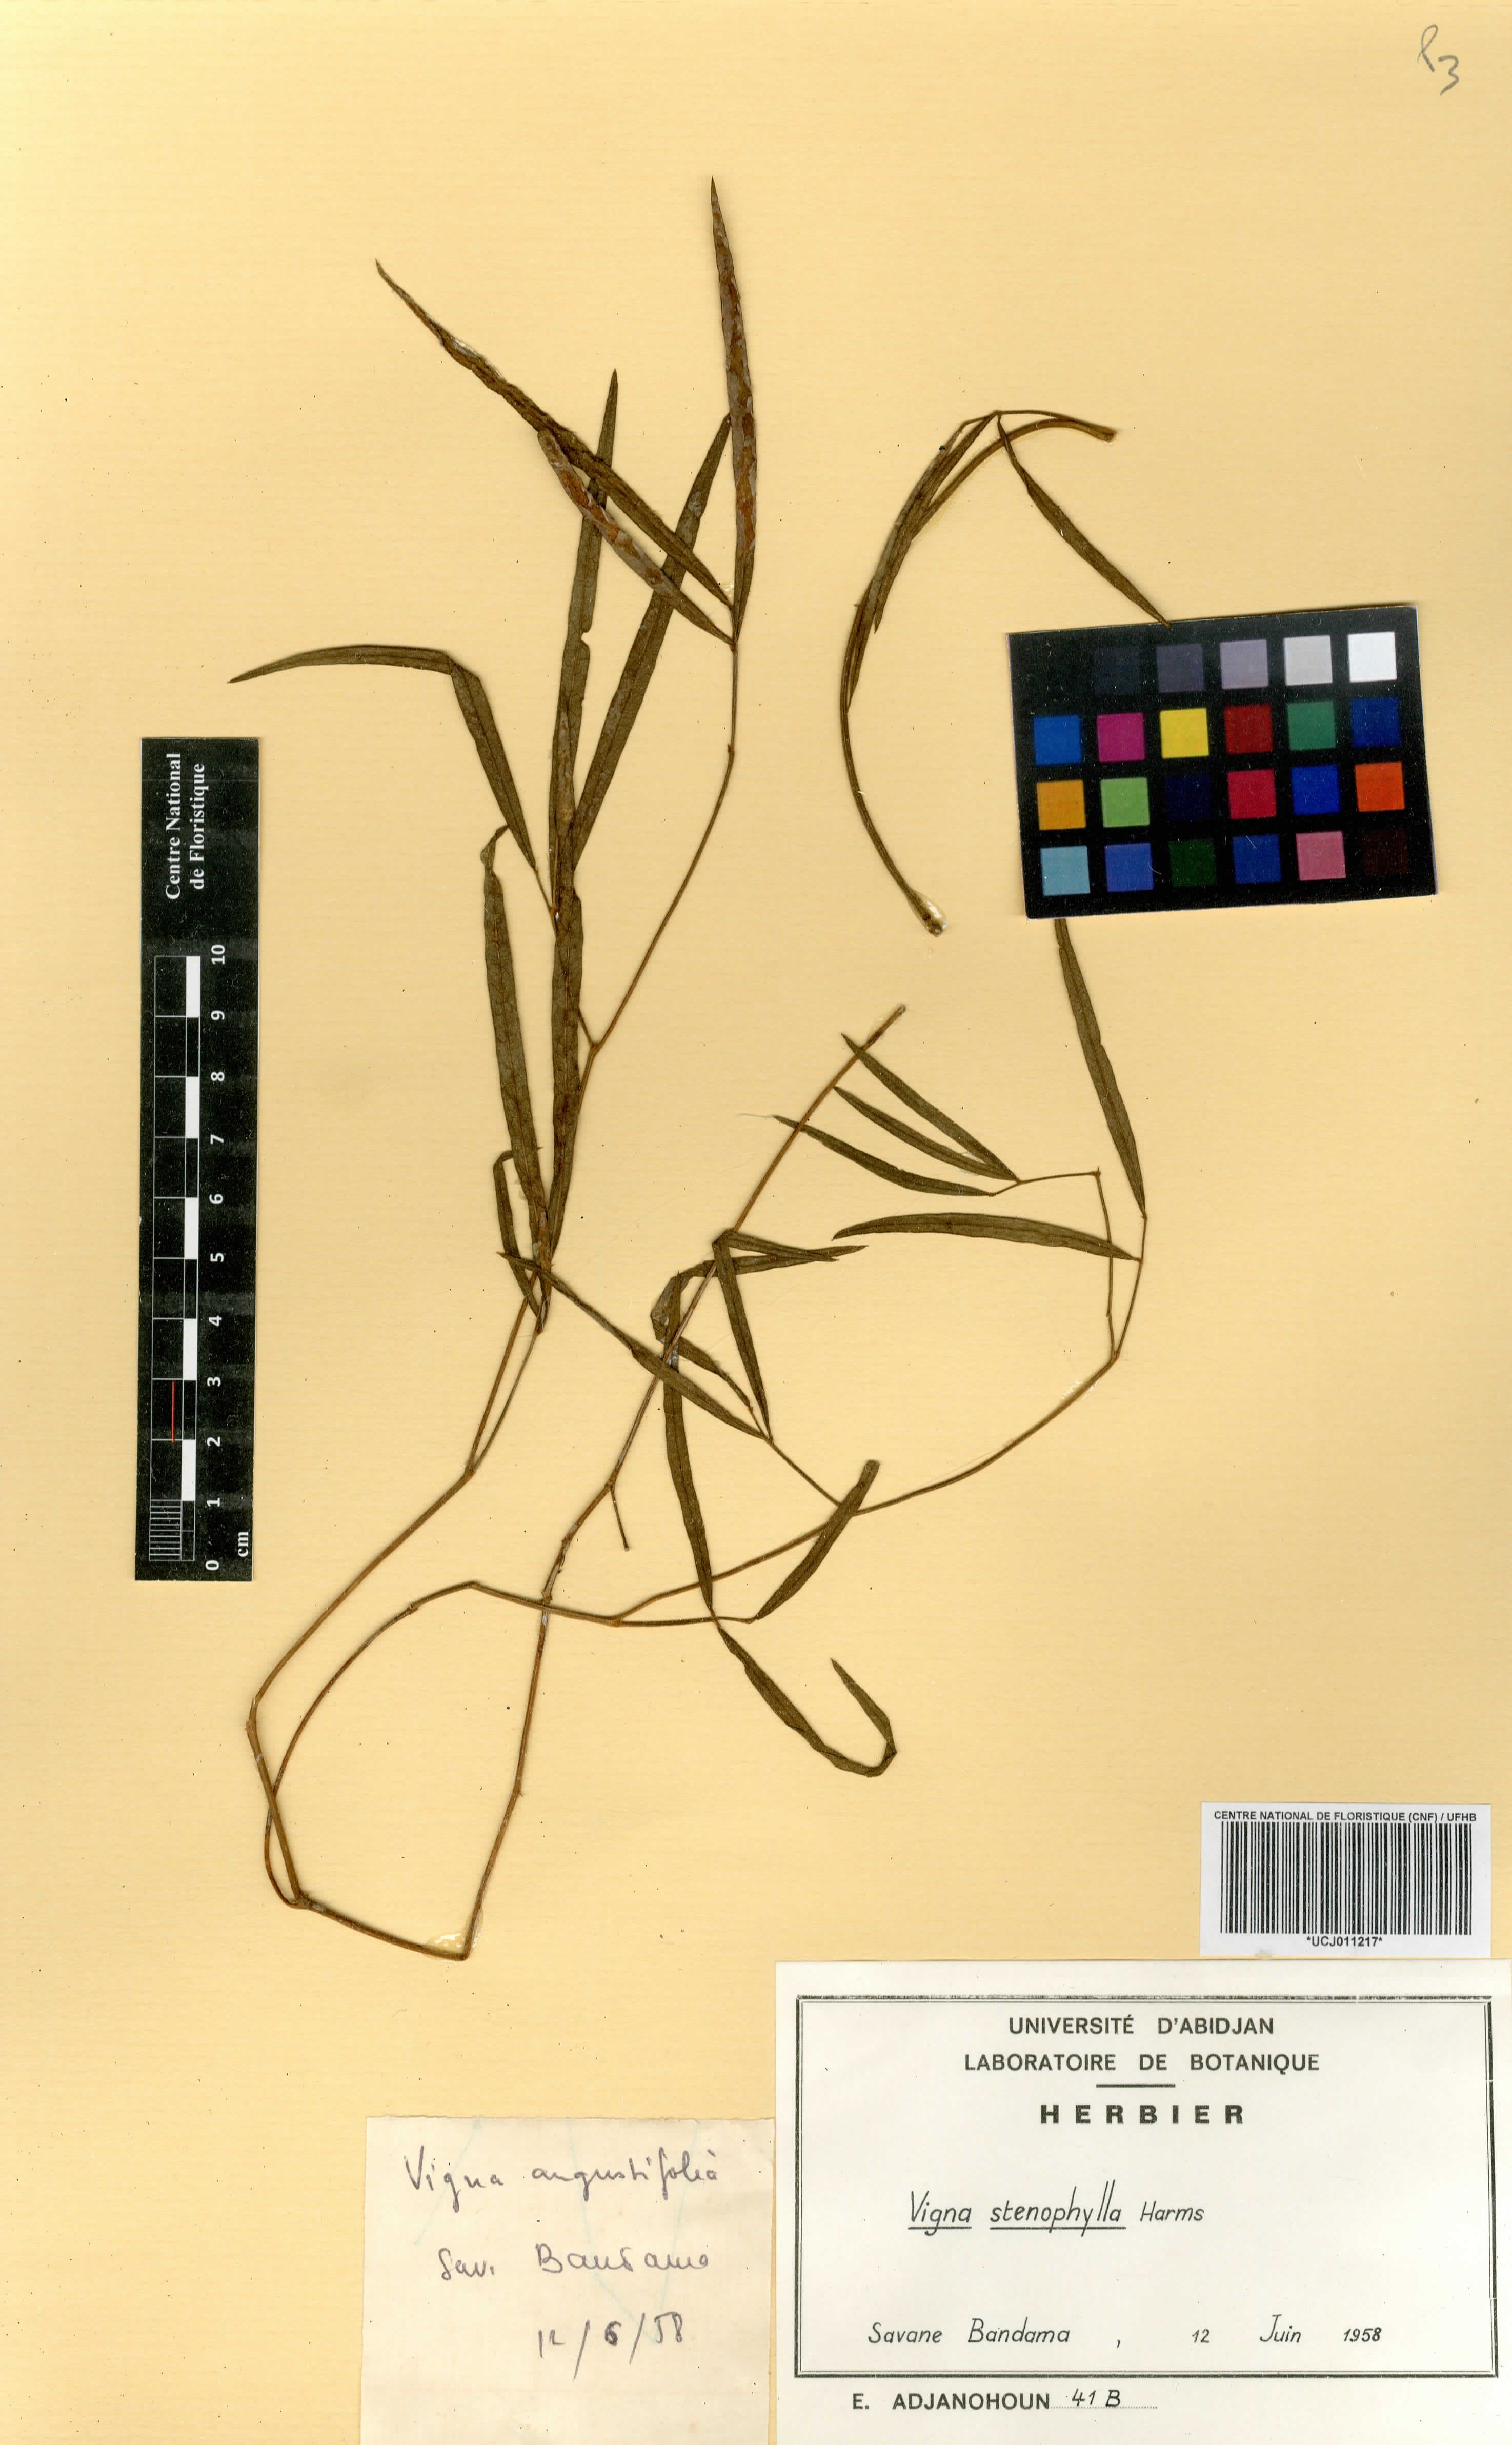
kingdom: Plantae
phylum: Tracheophyta
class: Magnoliopsida
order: Fabales
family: Fabaceae
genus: Vigna
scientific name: Vigna stenophylla
